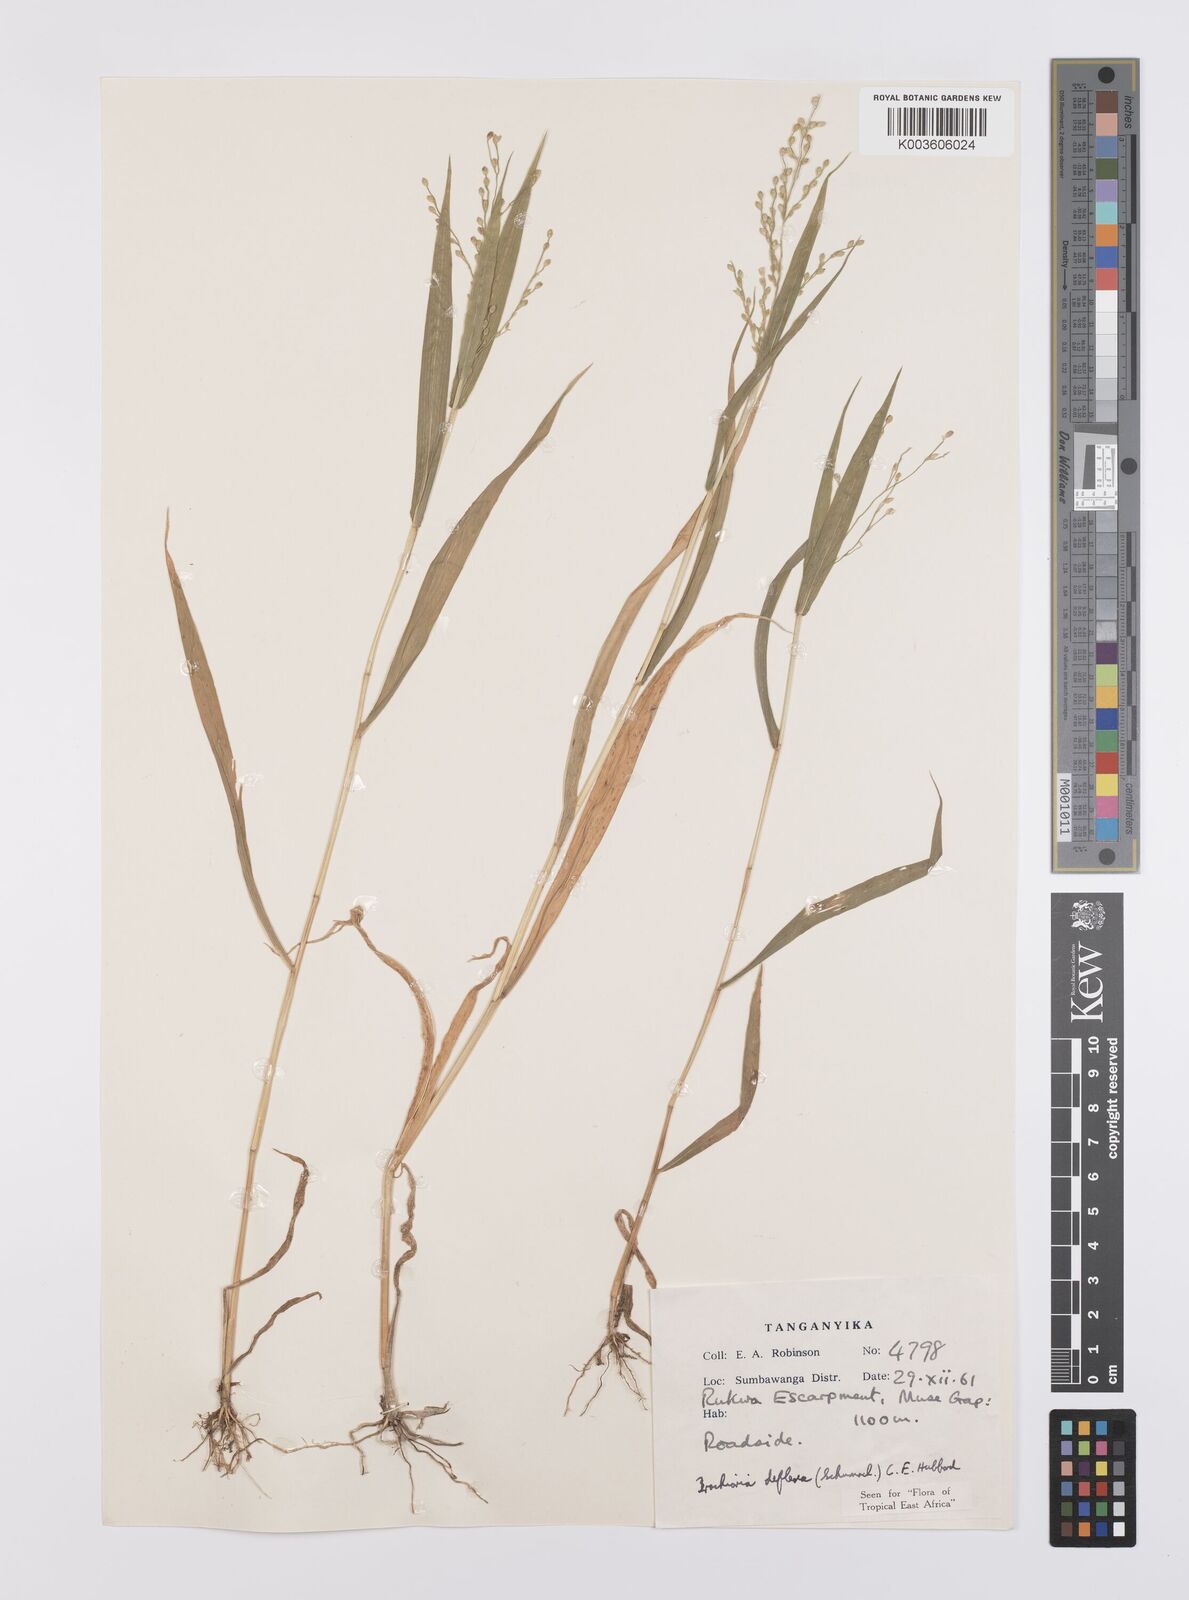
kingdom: Plantae
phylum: Tracheophyta
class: Liliopsida
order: Poales
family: Poaceae
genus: Urochloa
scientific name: Urochloa deflexa
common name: Guinea millet
